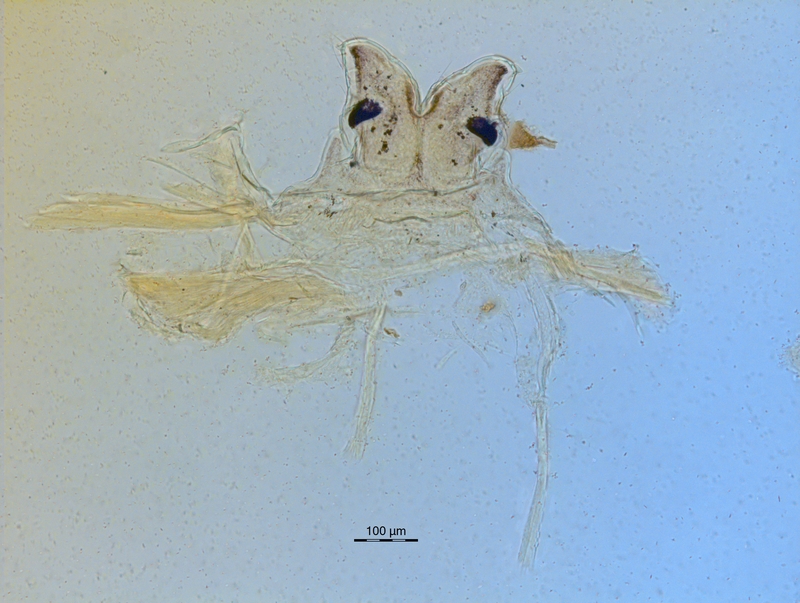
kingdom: Animalia
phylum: Arthropoda
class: Diplopoda
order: Chordeumatida
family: Craspedosomatidae
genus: Ochogona
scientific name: Ochogona caroli
